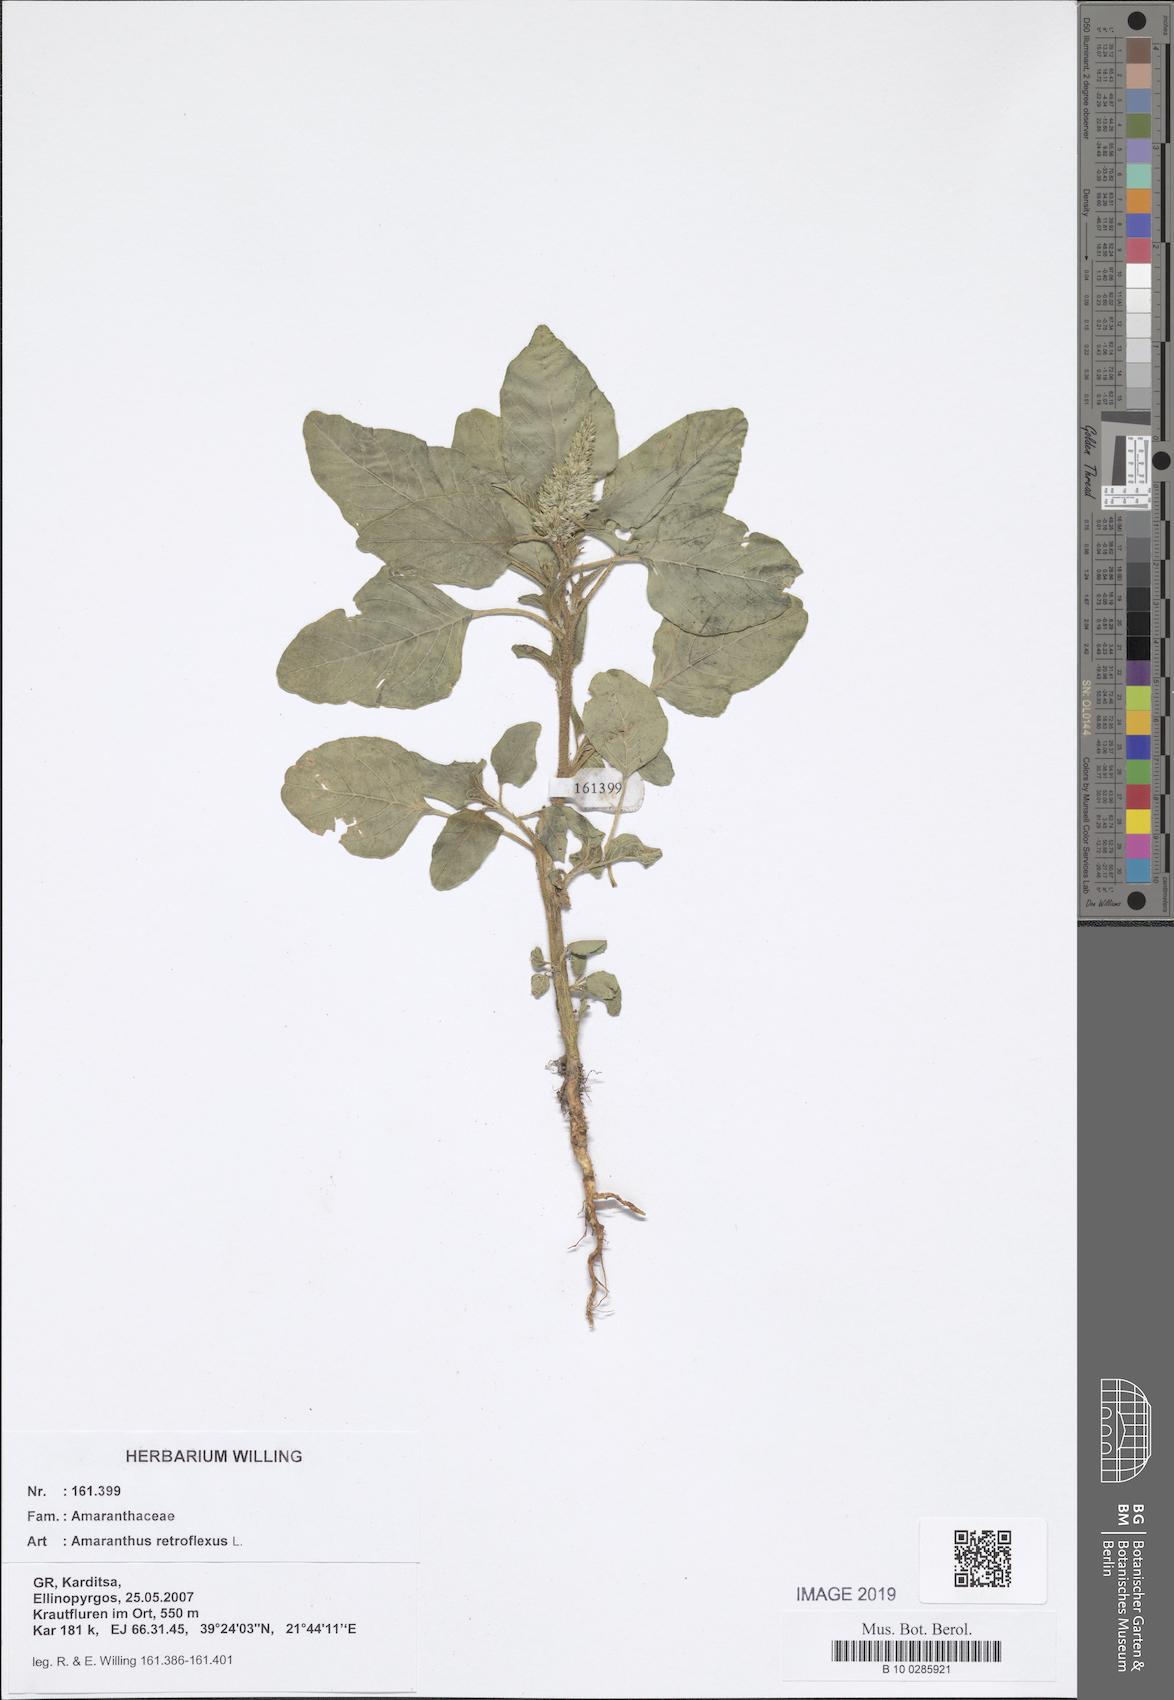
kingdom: Plantae
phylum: Tracheophyta
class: Magnoliopsida
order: Caryophyllales
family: Amaranthaceae
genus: Amaranthus
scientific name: Amaranthus retroflexus
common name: Redroot amaranth
